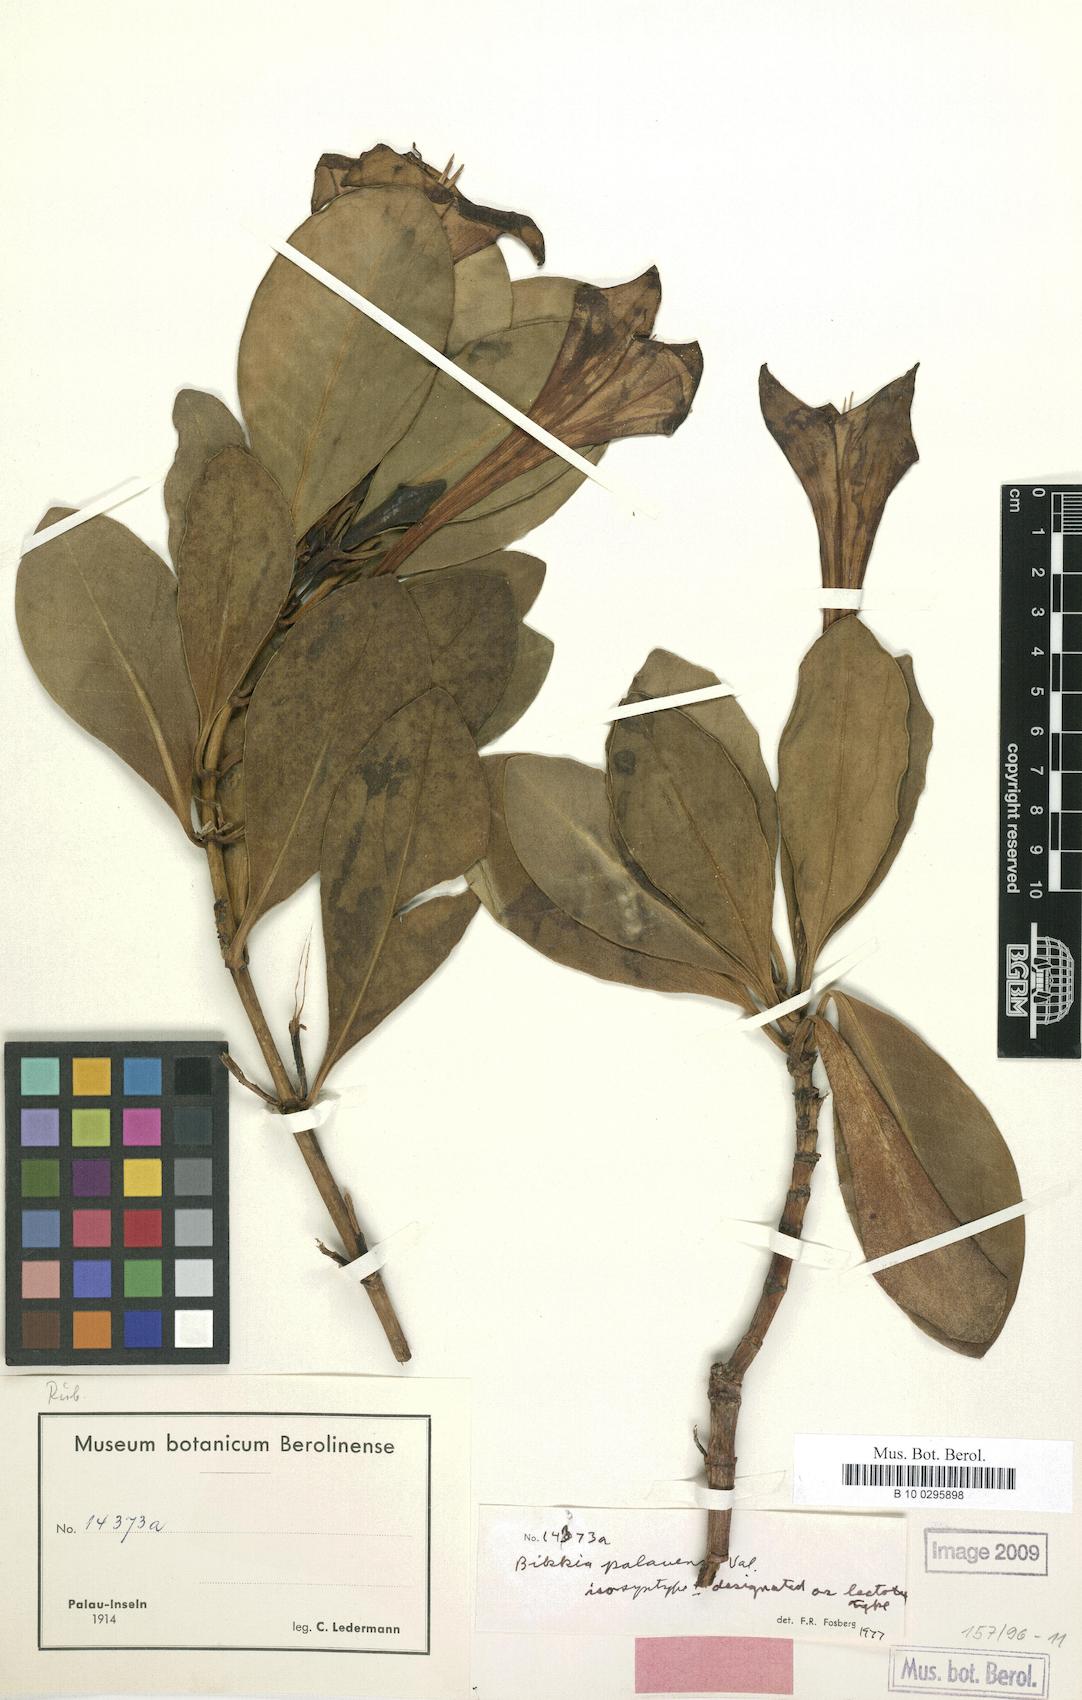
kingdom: Plantae
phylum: Tracheophyta
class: Magnoliopsida
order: Gentianales
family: Rubiaceae
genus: Bikkia
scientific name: Bikkia palauensis
